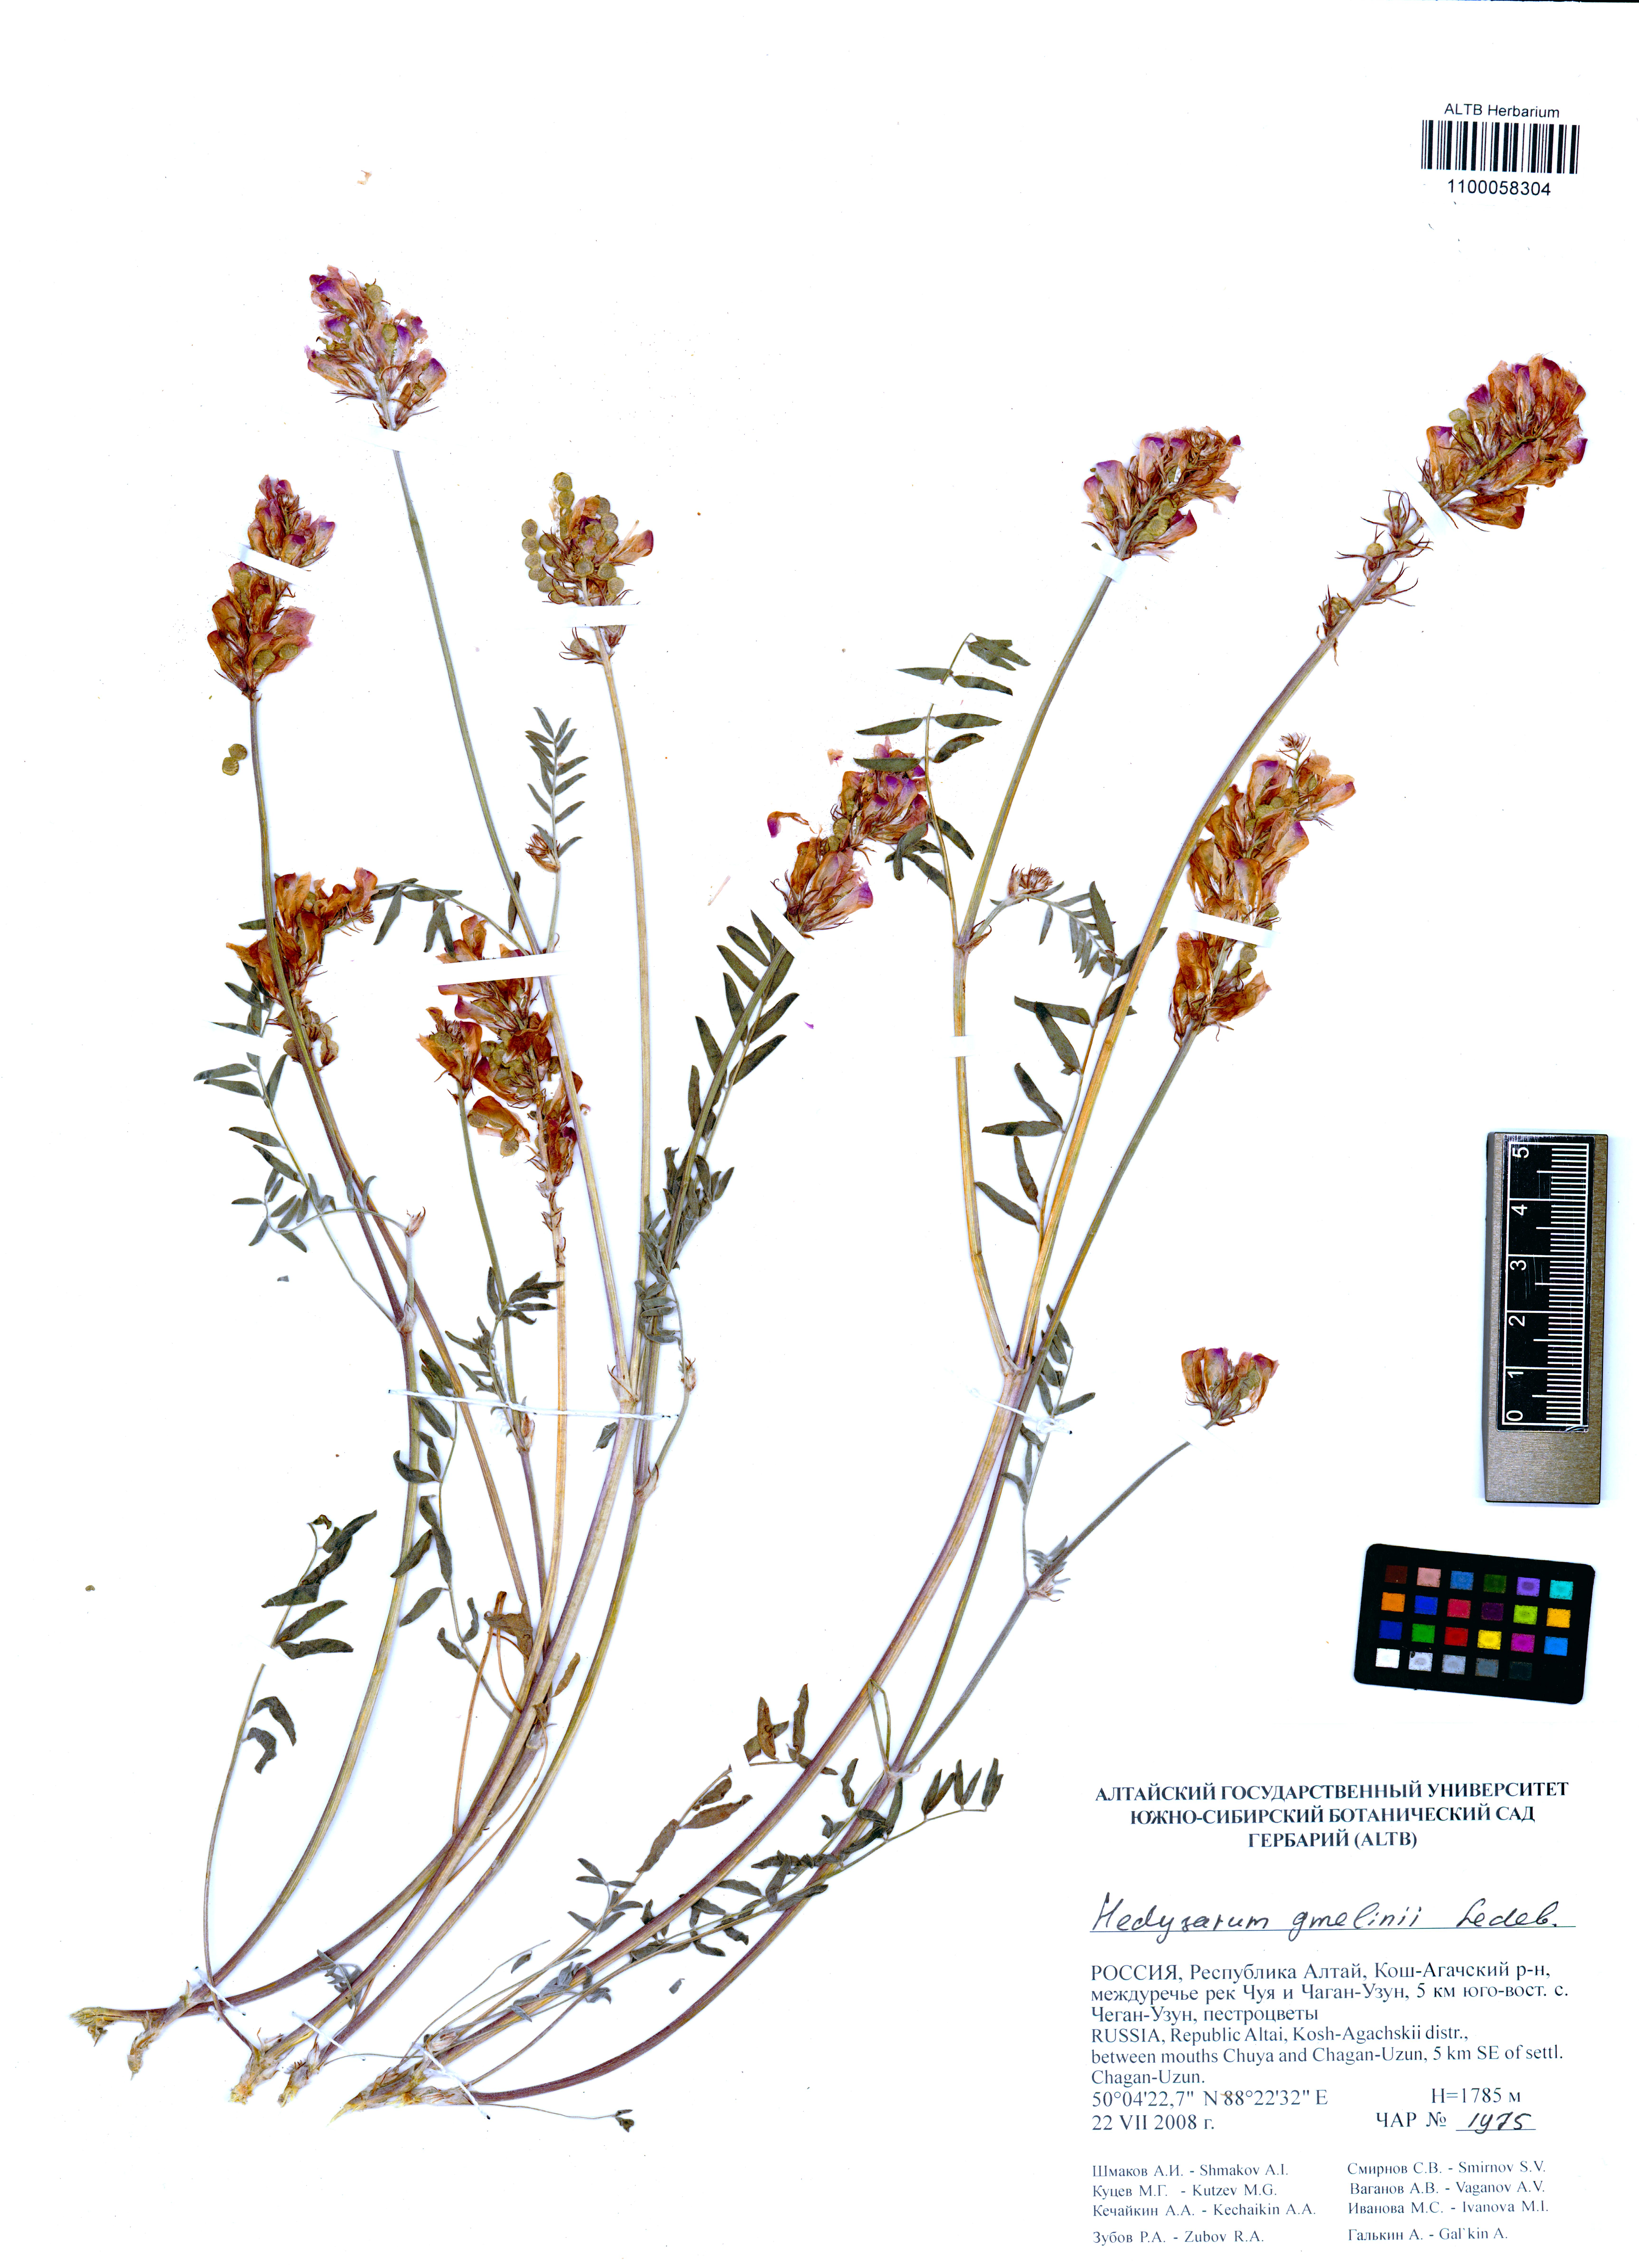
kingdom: Plantae
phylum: Tracheophyta
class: Magnoliopsida
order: Fabales
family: Fabaceae
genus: Hedysarum
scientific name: Hedysarum gmelinii
